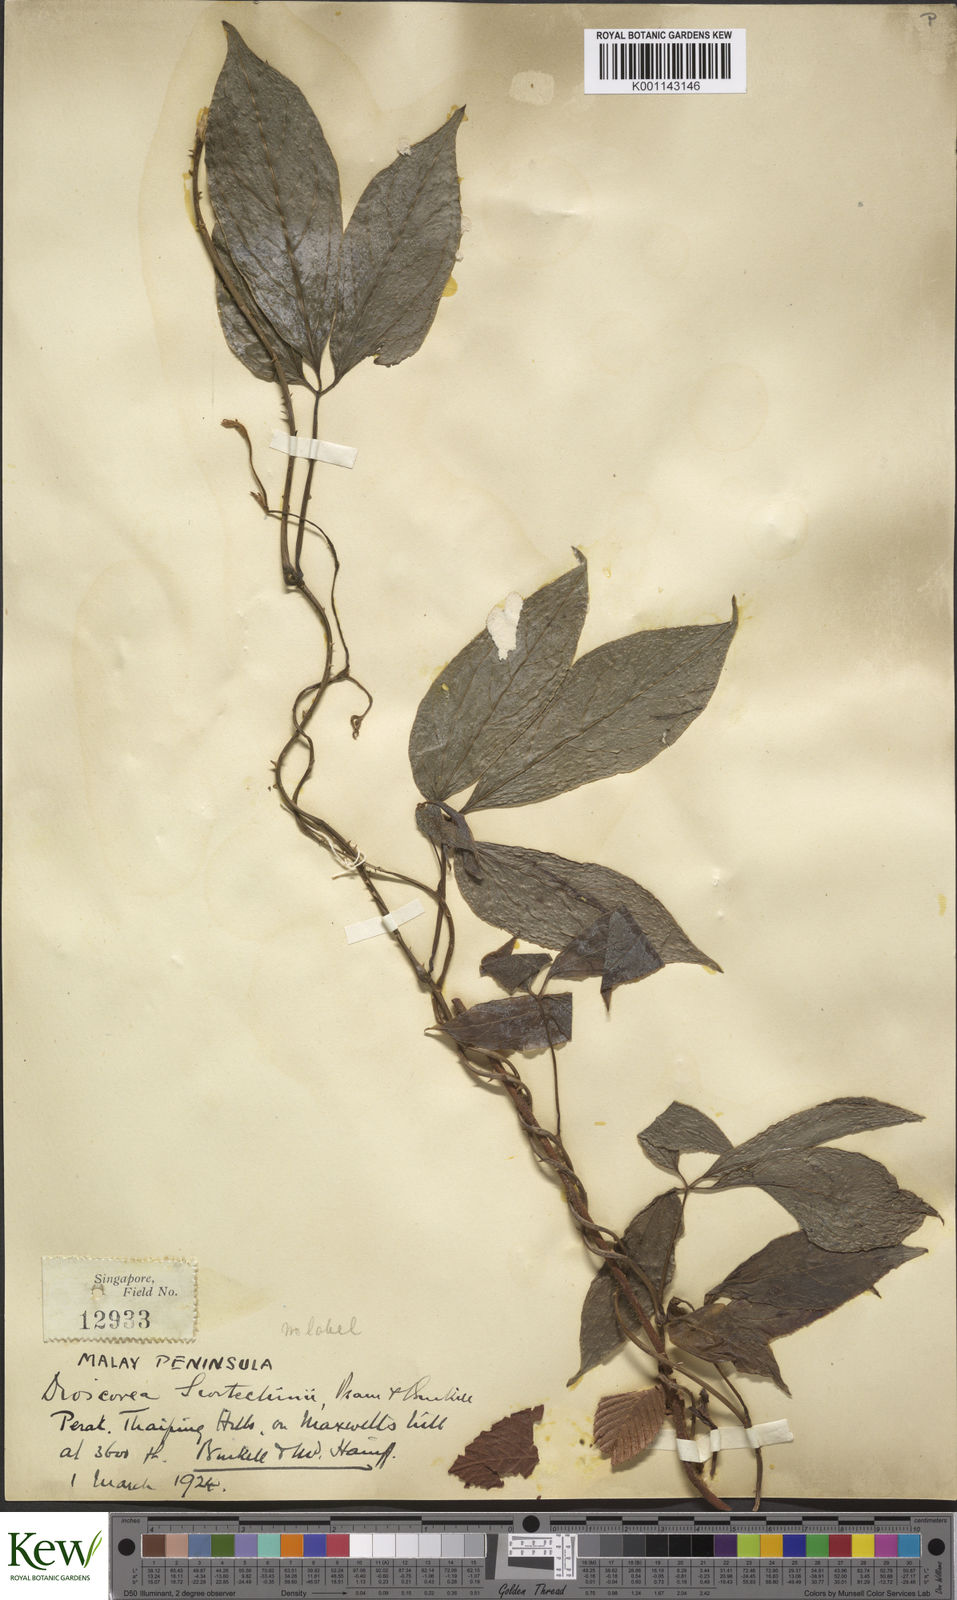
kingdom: Plantae
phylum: Tracheophyta
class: Liliopsida
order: Dioscoreales
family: Dioscoreaceae
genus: Dioscorea
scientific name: Dioscorea scortechinii
